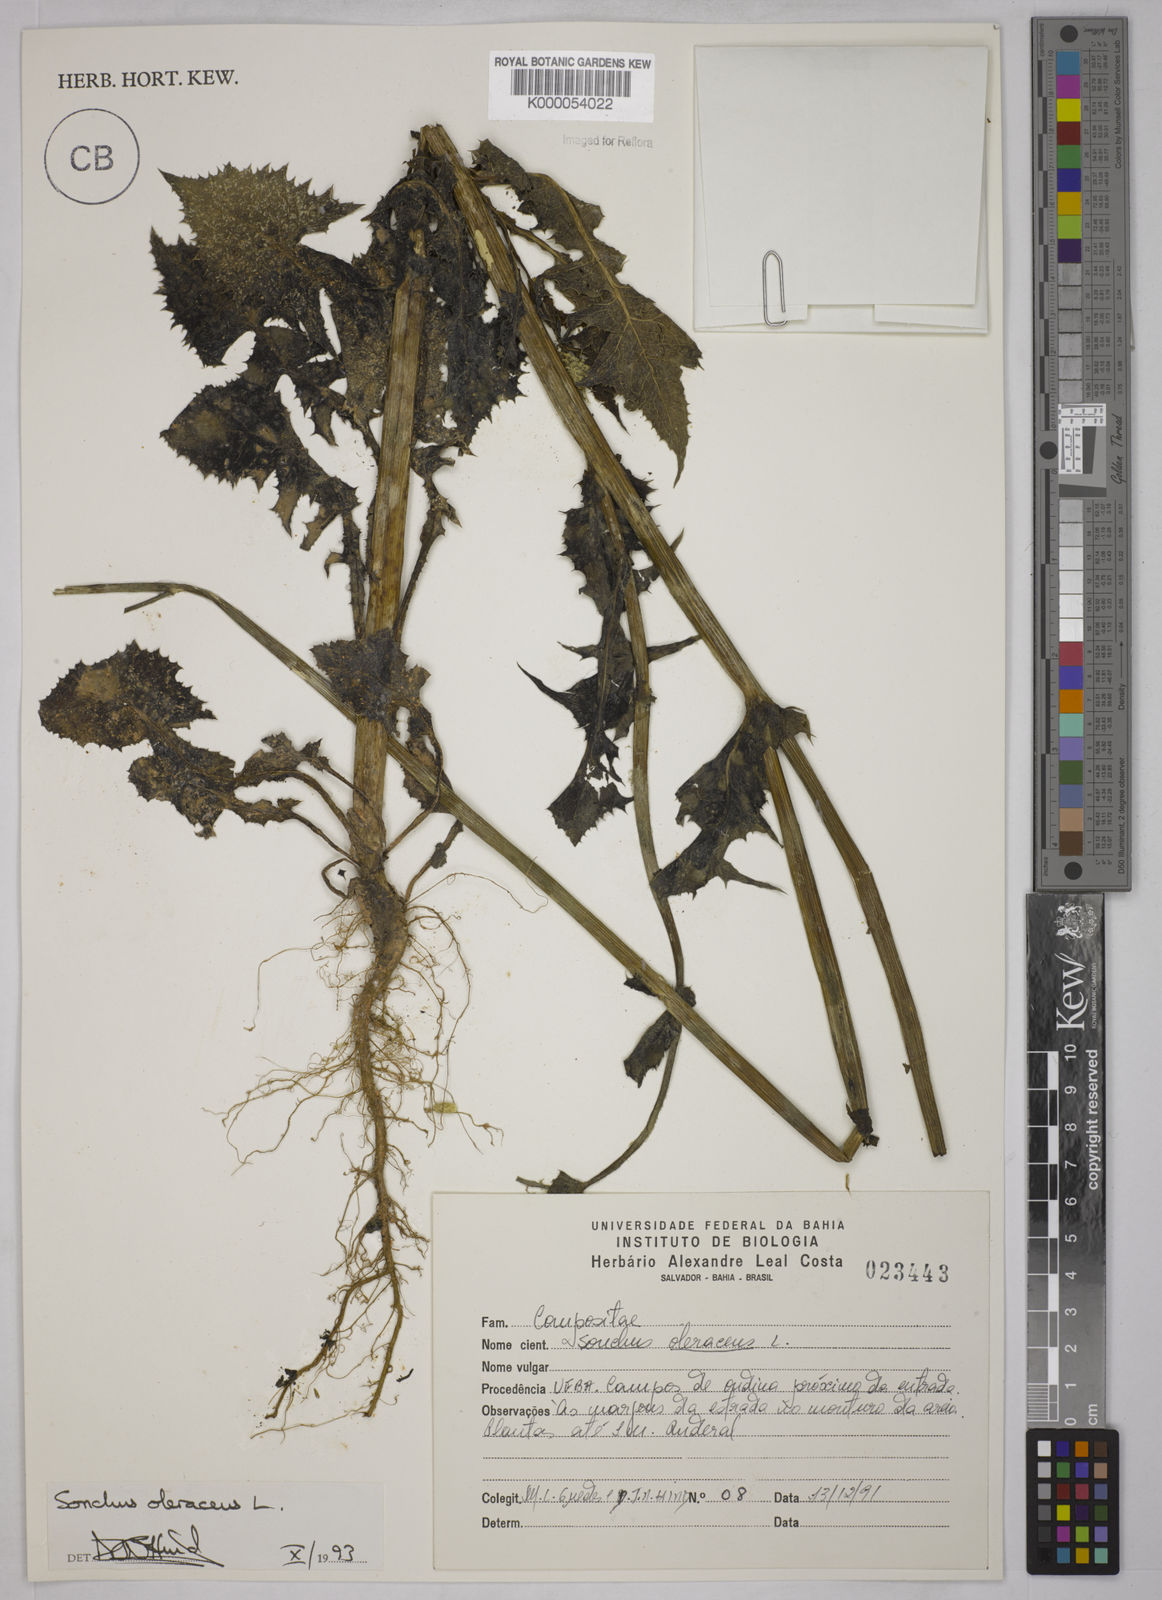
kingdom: Plantae
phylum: Tracheophyta
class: Magnoliopsida
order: Asterales
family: Asteraceae
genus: Sonchus
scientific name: Sonchus oleraceus
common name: Common sowthistle
